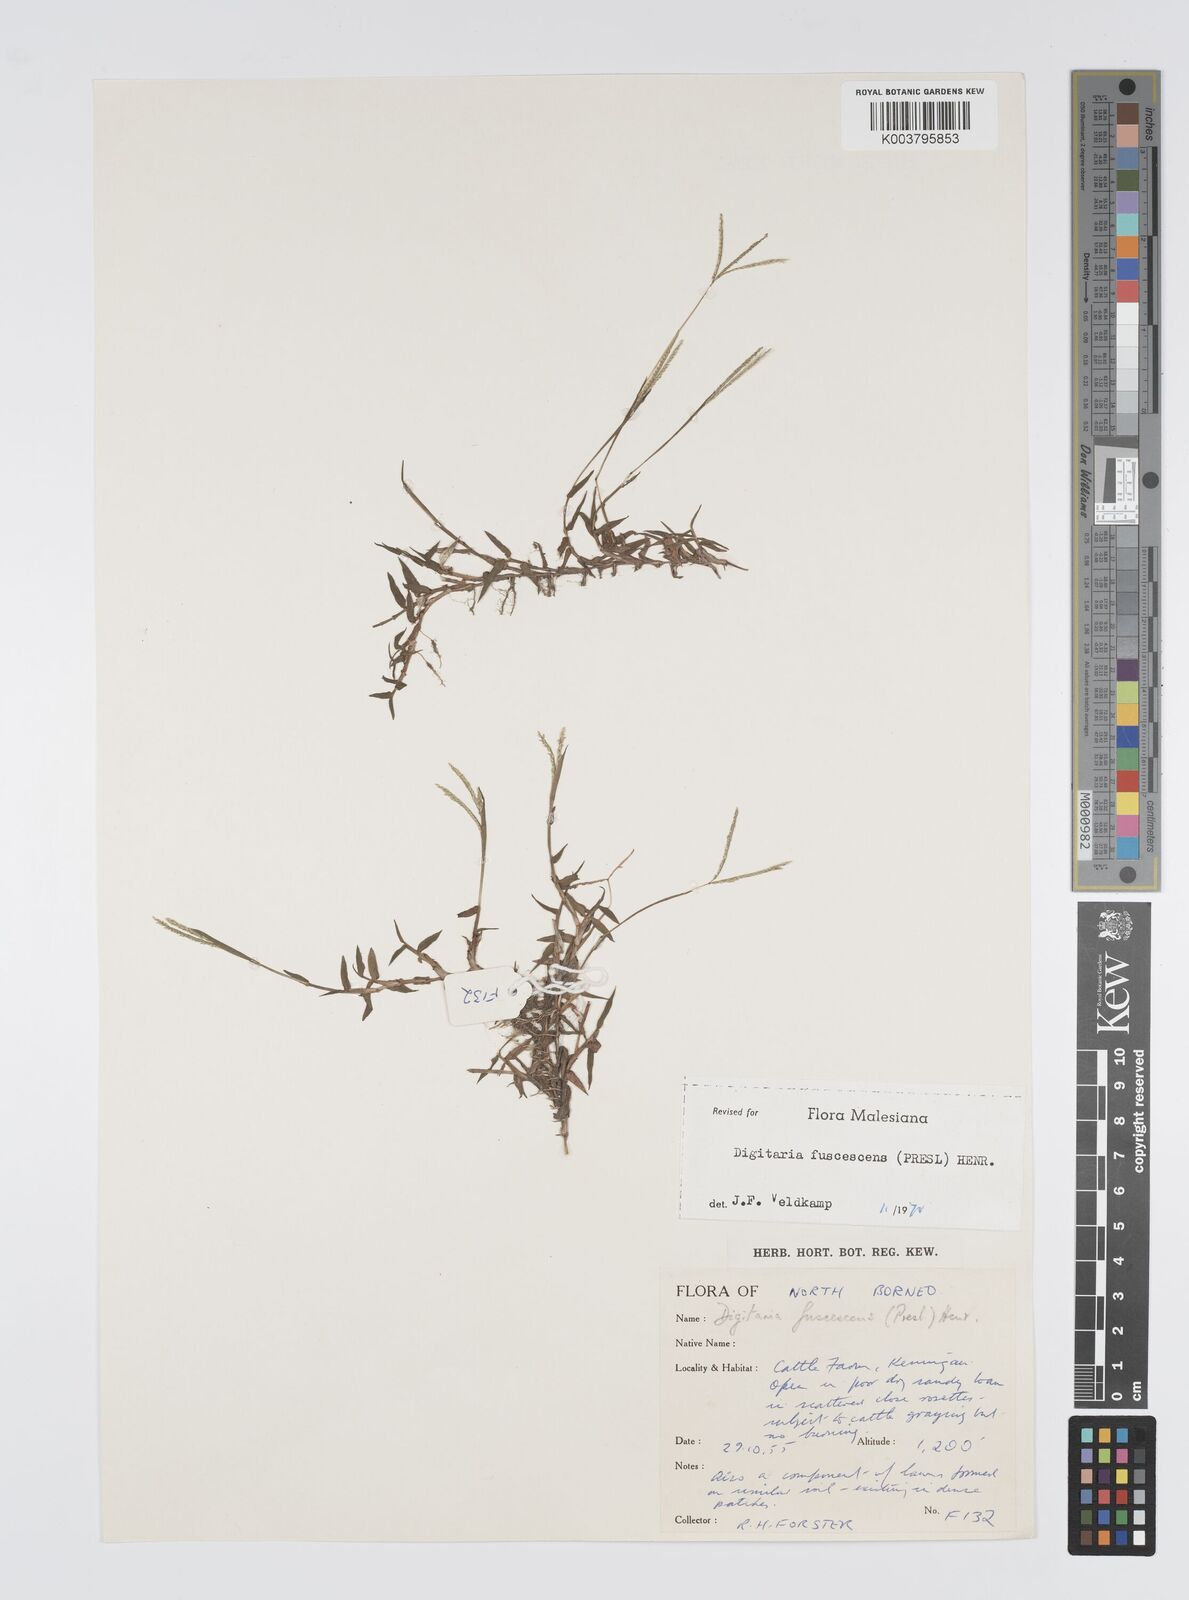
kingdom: Plantae
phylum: Tracheophyta
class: Liliopsida
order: Poales
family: Poaceae
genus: Digitaria
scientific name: Digitaria fuscescens
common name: Yellow crabgrass
